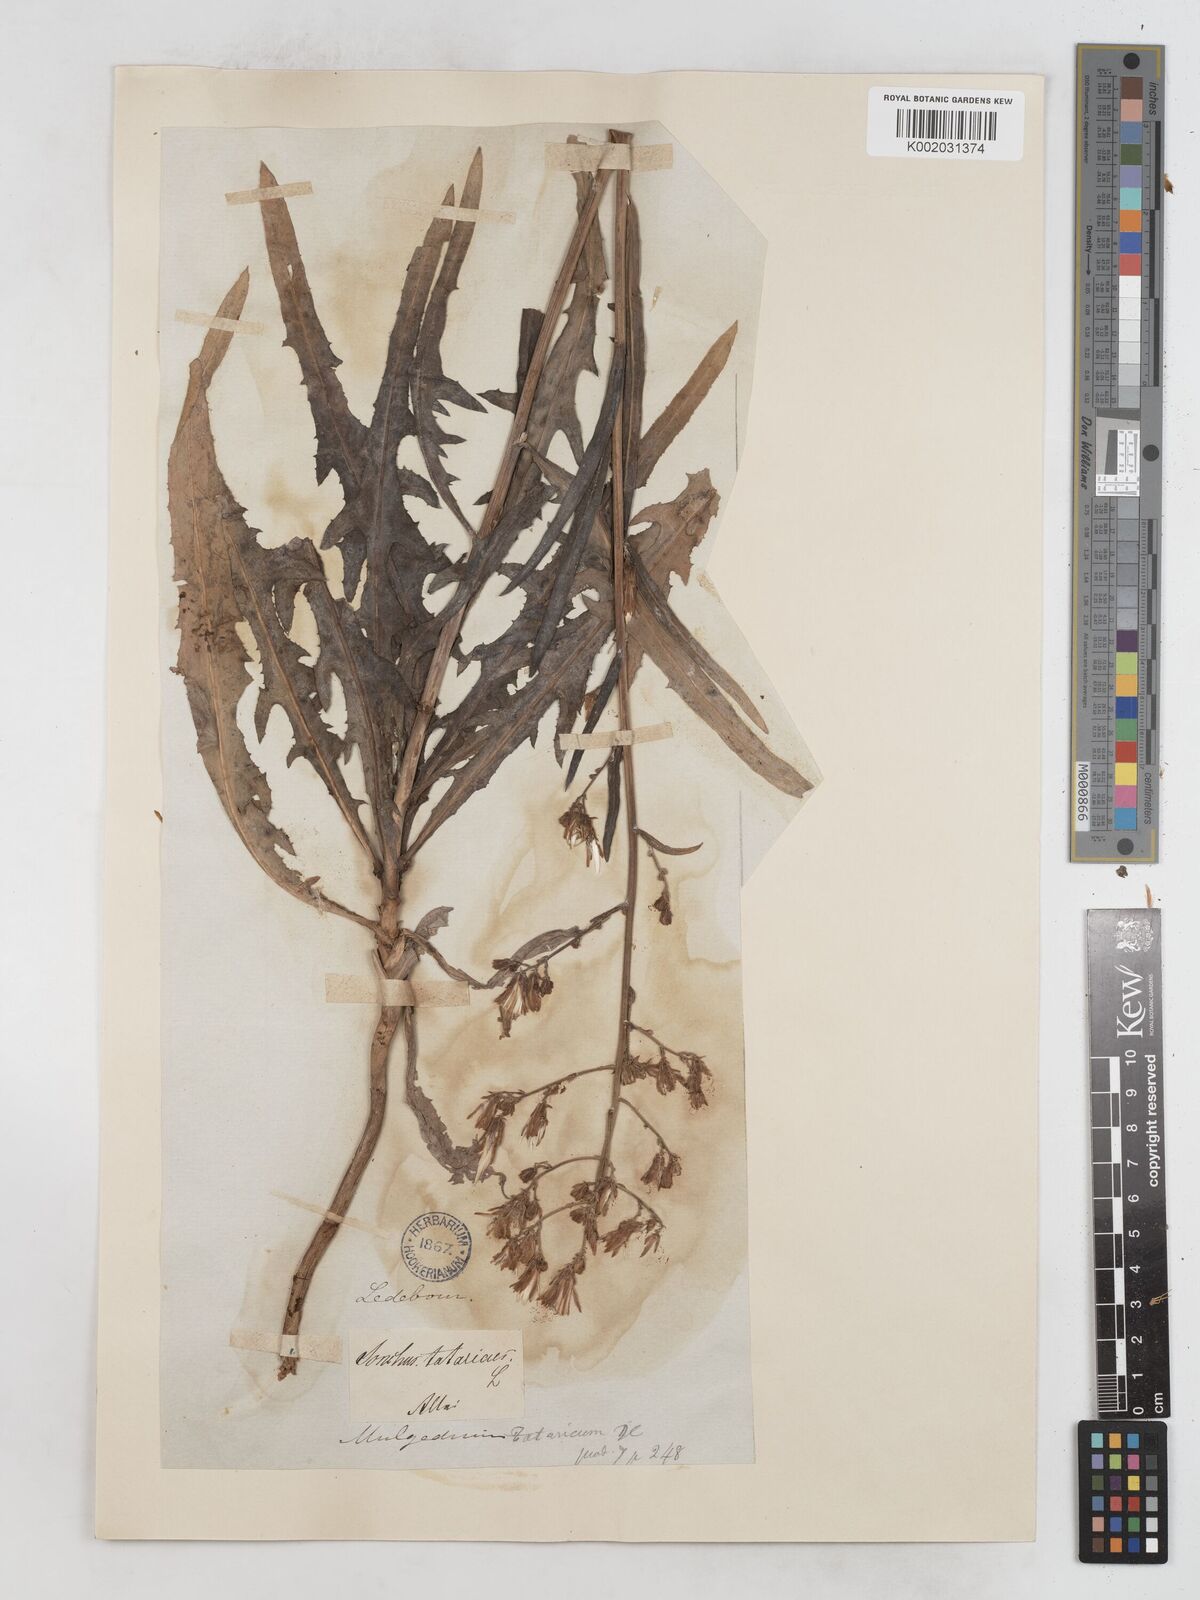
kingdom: Plantae
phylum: Tracheophyta
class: Magnoliopsida
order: Asterales
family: Asteraceae
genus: Lactuca
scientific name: Lactuca tatarica
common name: Blue lettuce
